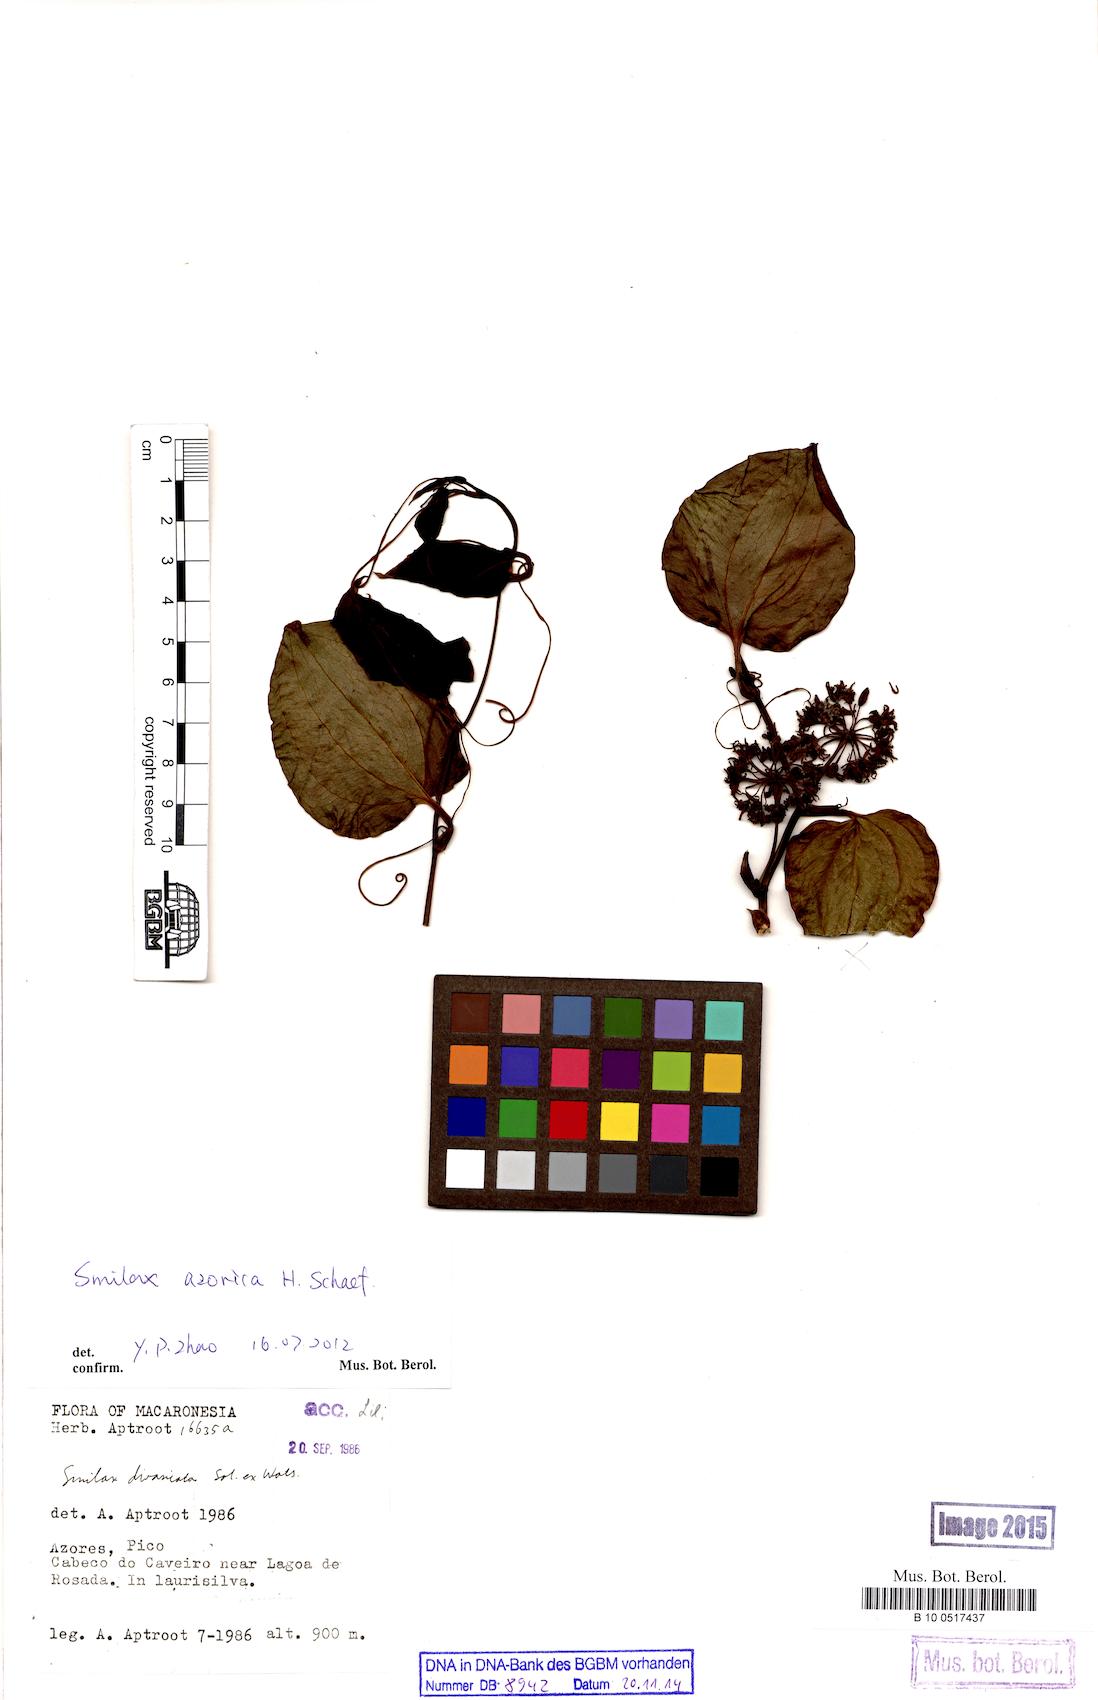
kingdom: Plantae
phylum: Tracheophyta
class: Liliopsida
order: Liliales
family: Smilacaceae
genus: Smilax
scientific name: Smilax azorica
